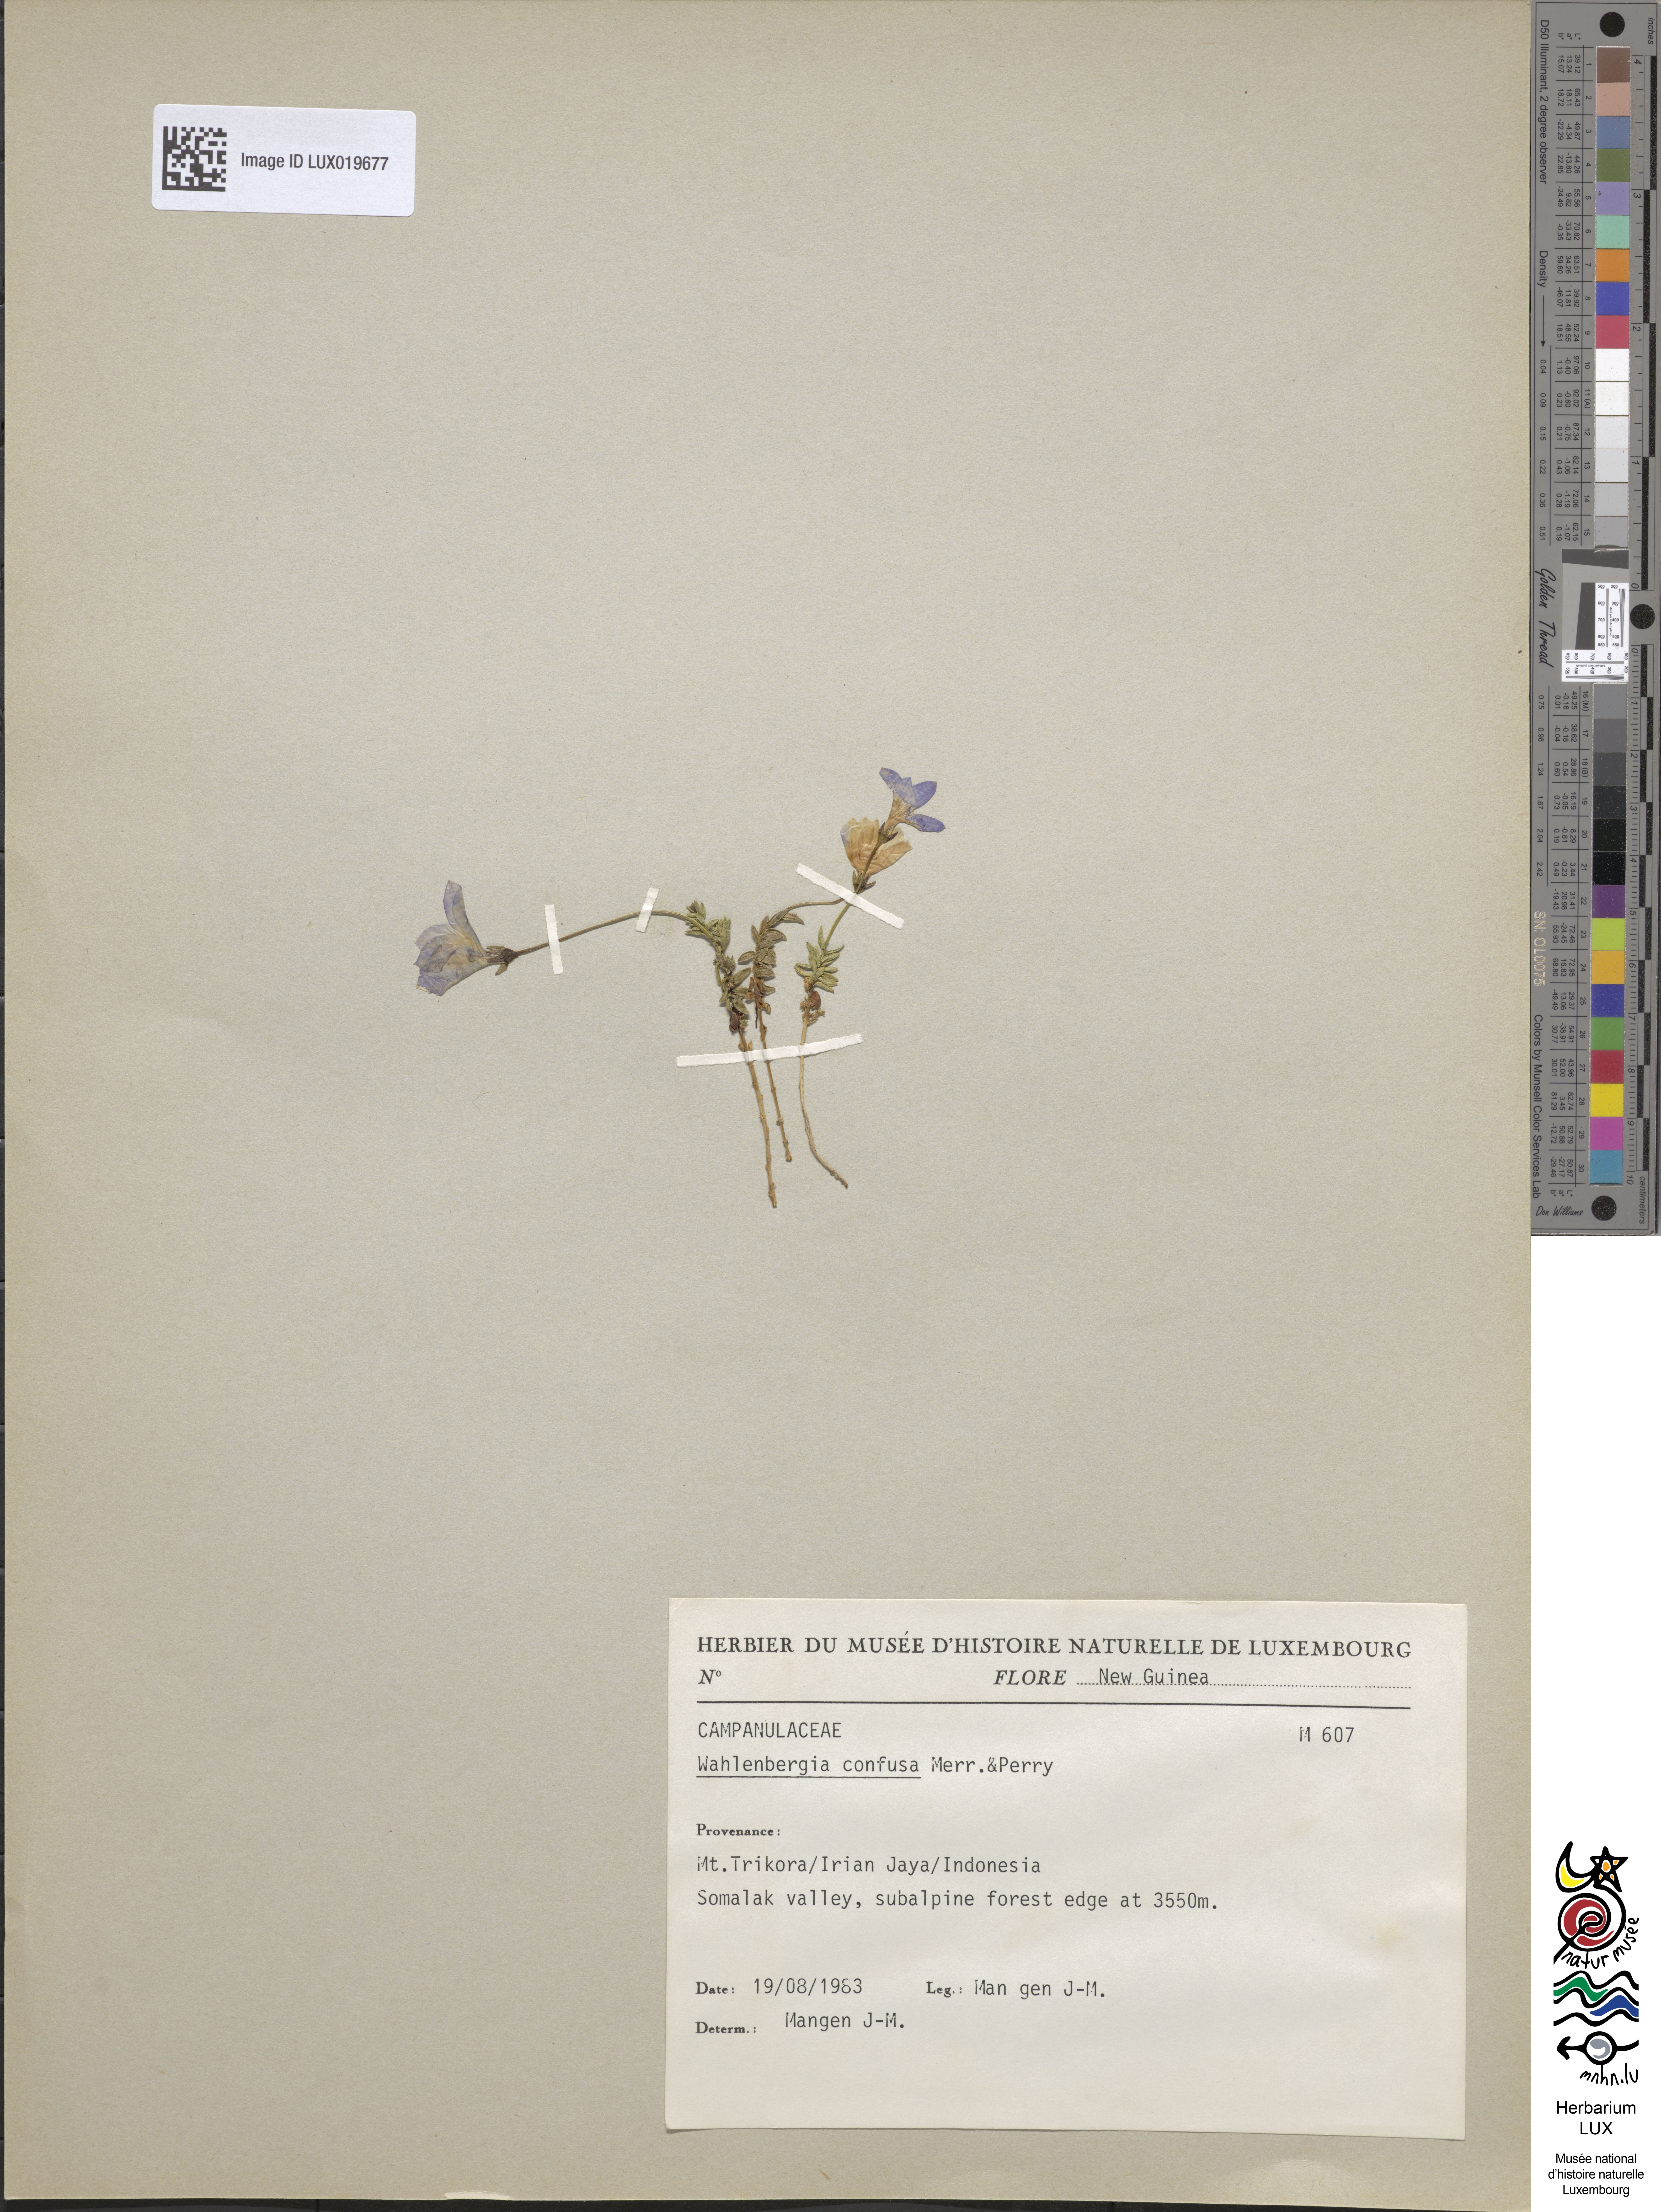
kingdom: Plantae
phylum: Tracheophyta
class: Magnoliopsida
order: Asterales
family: Campanulaceae
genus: Wahlenbergia
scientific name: Wahlenbergia confusa
